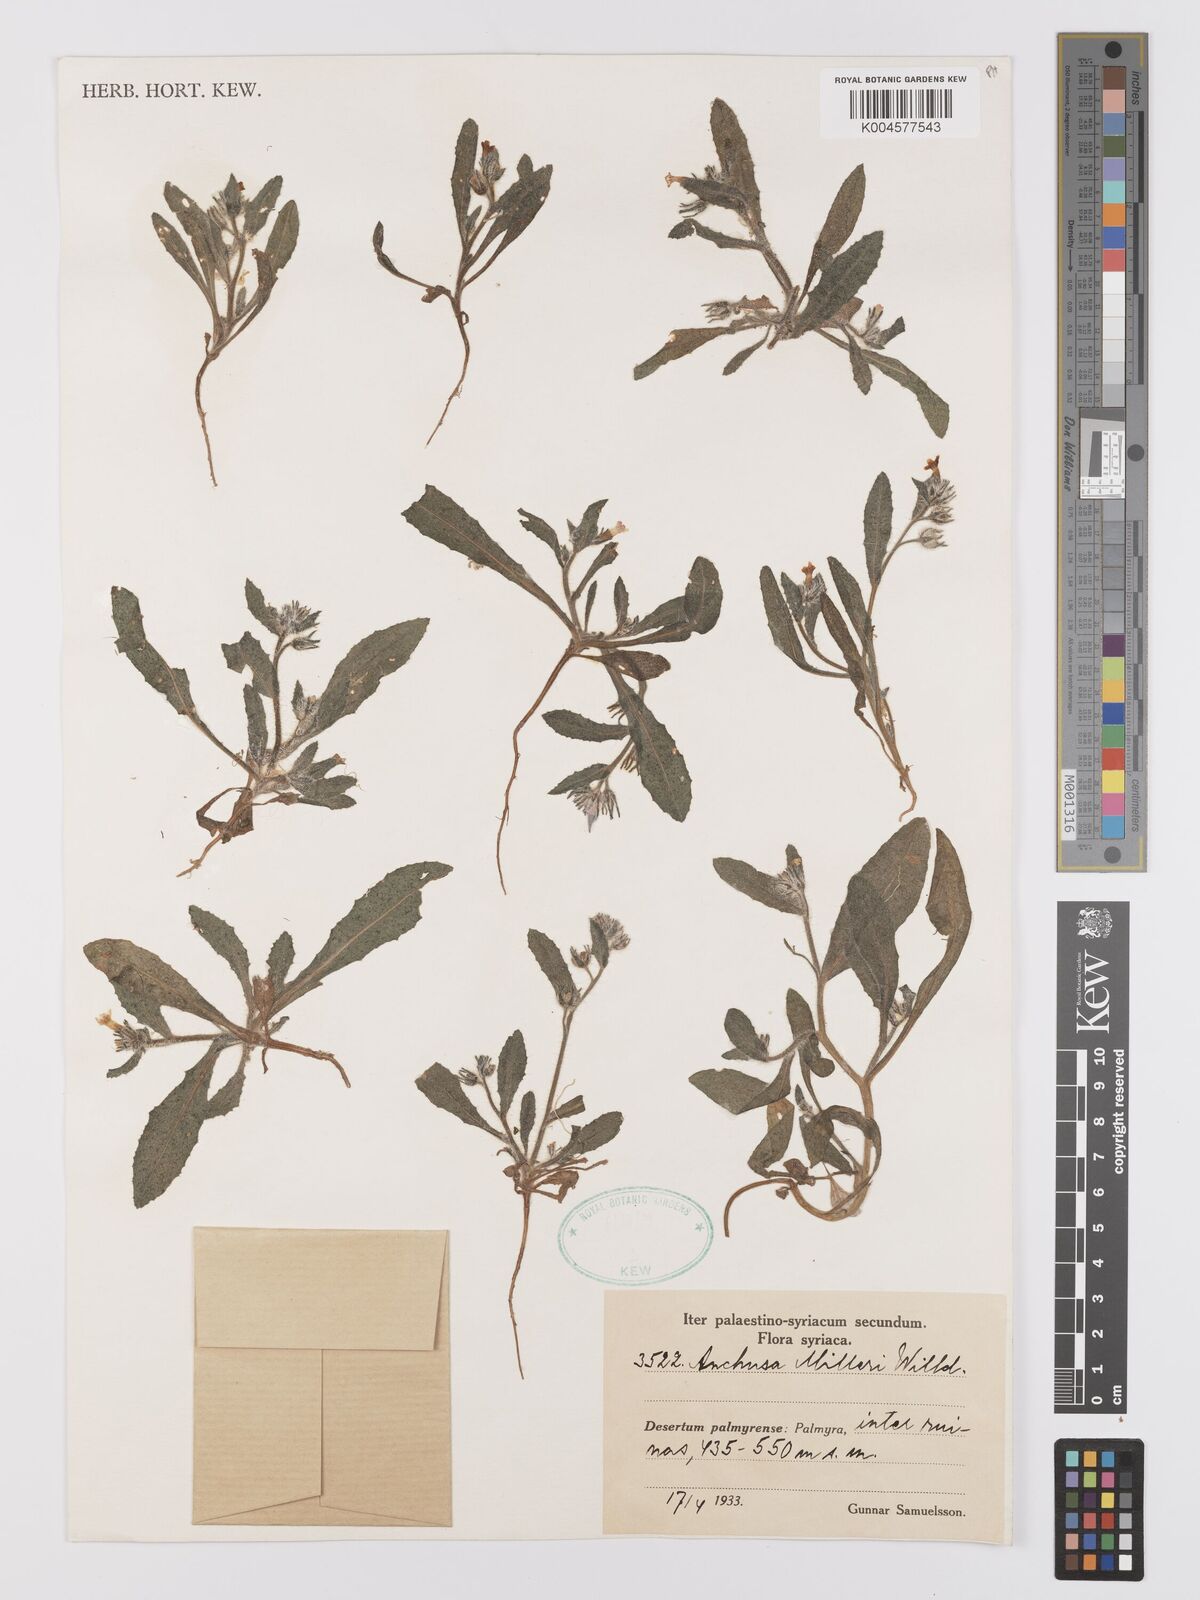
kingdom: Plantae
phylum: Tracheophyta
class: Magnoliopsida
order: Boraginales
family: Boraginaceae
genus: Anchusa
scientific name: Anchusa
